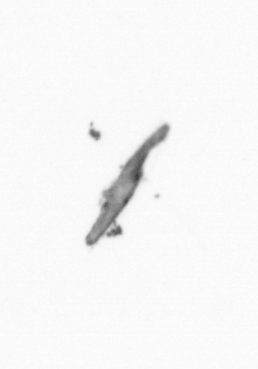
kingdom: Chromista
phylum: Ochrophyta
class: Bacillariophyceae
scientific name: Bacillariophyceae
